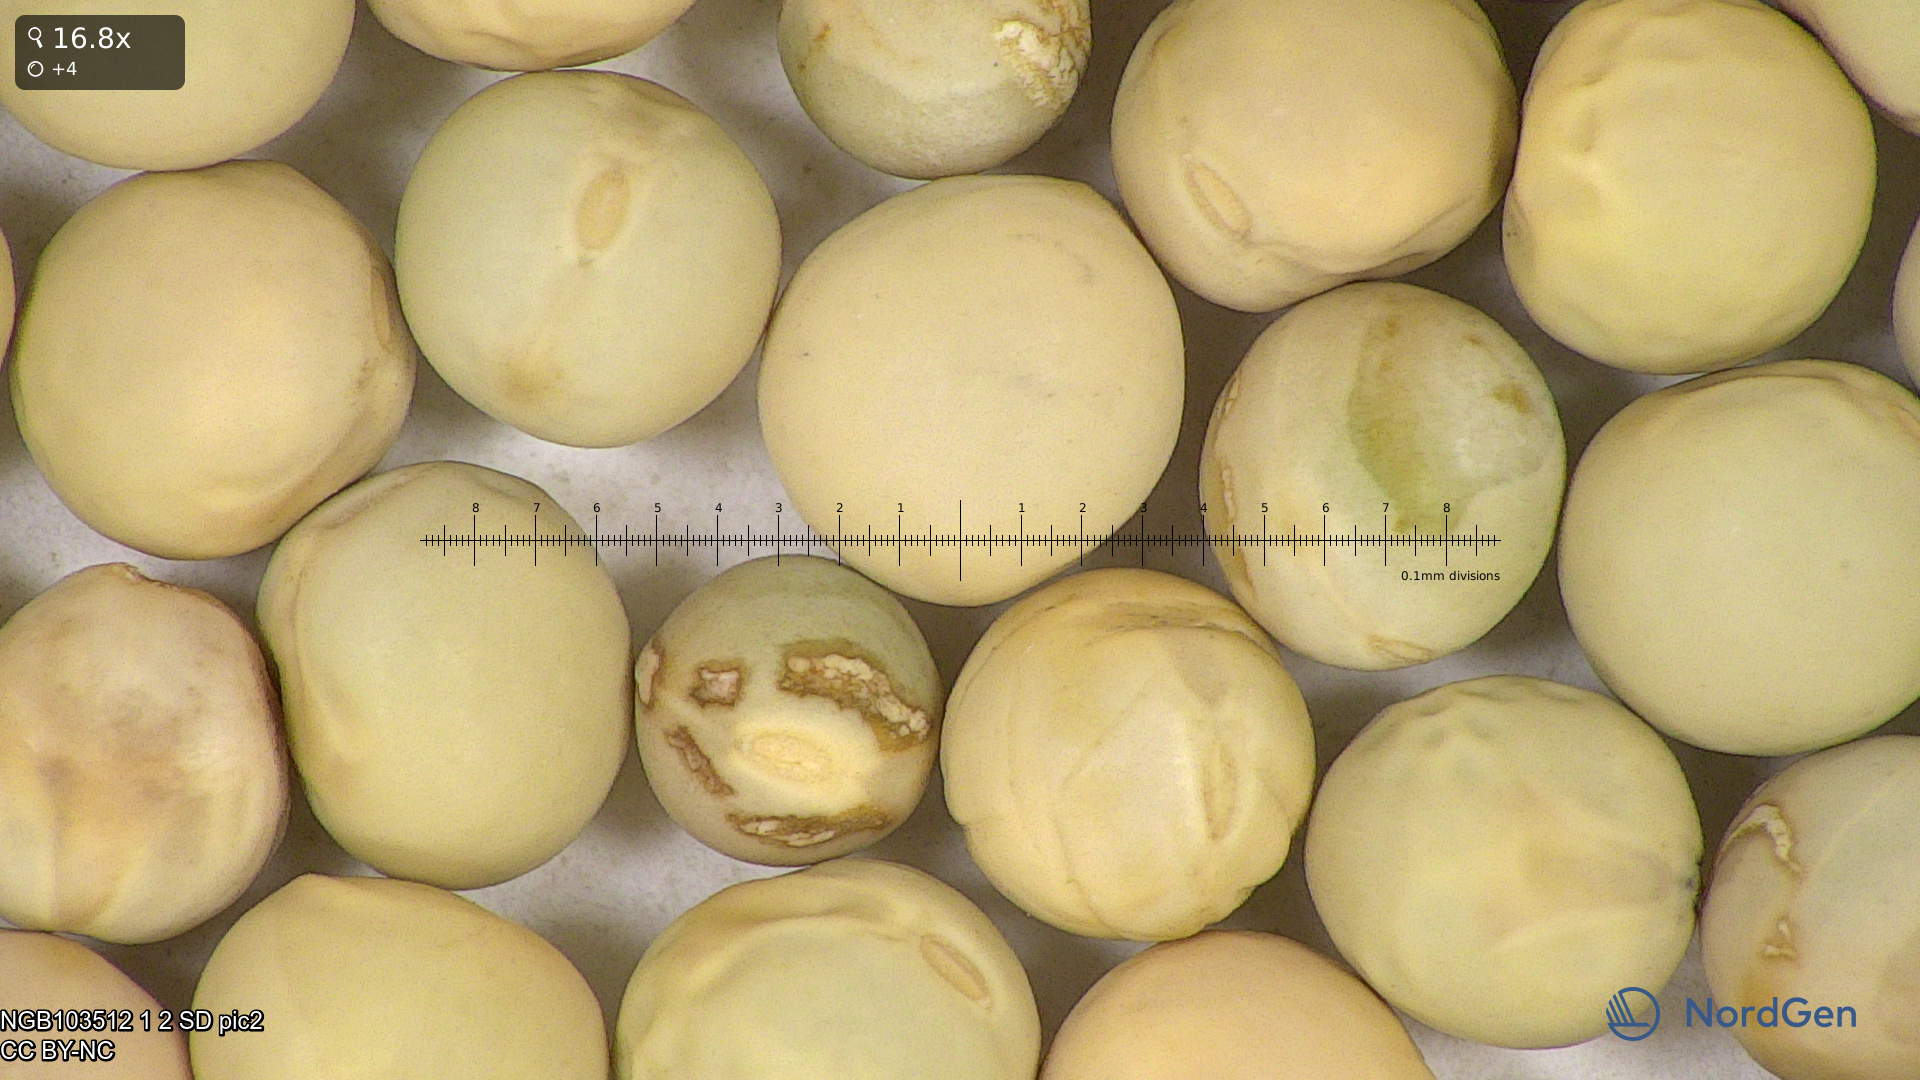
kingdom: Plantae
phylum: Tracheophyta
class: Magnoliopsida
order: Fabales
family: Fabaceae
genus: Lathyrus
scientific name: Lathyrus oleraceus
